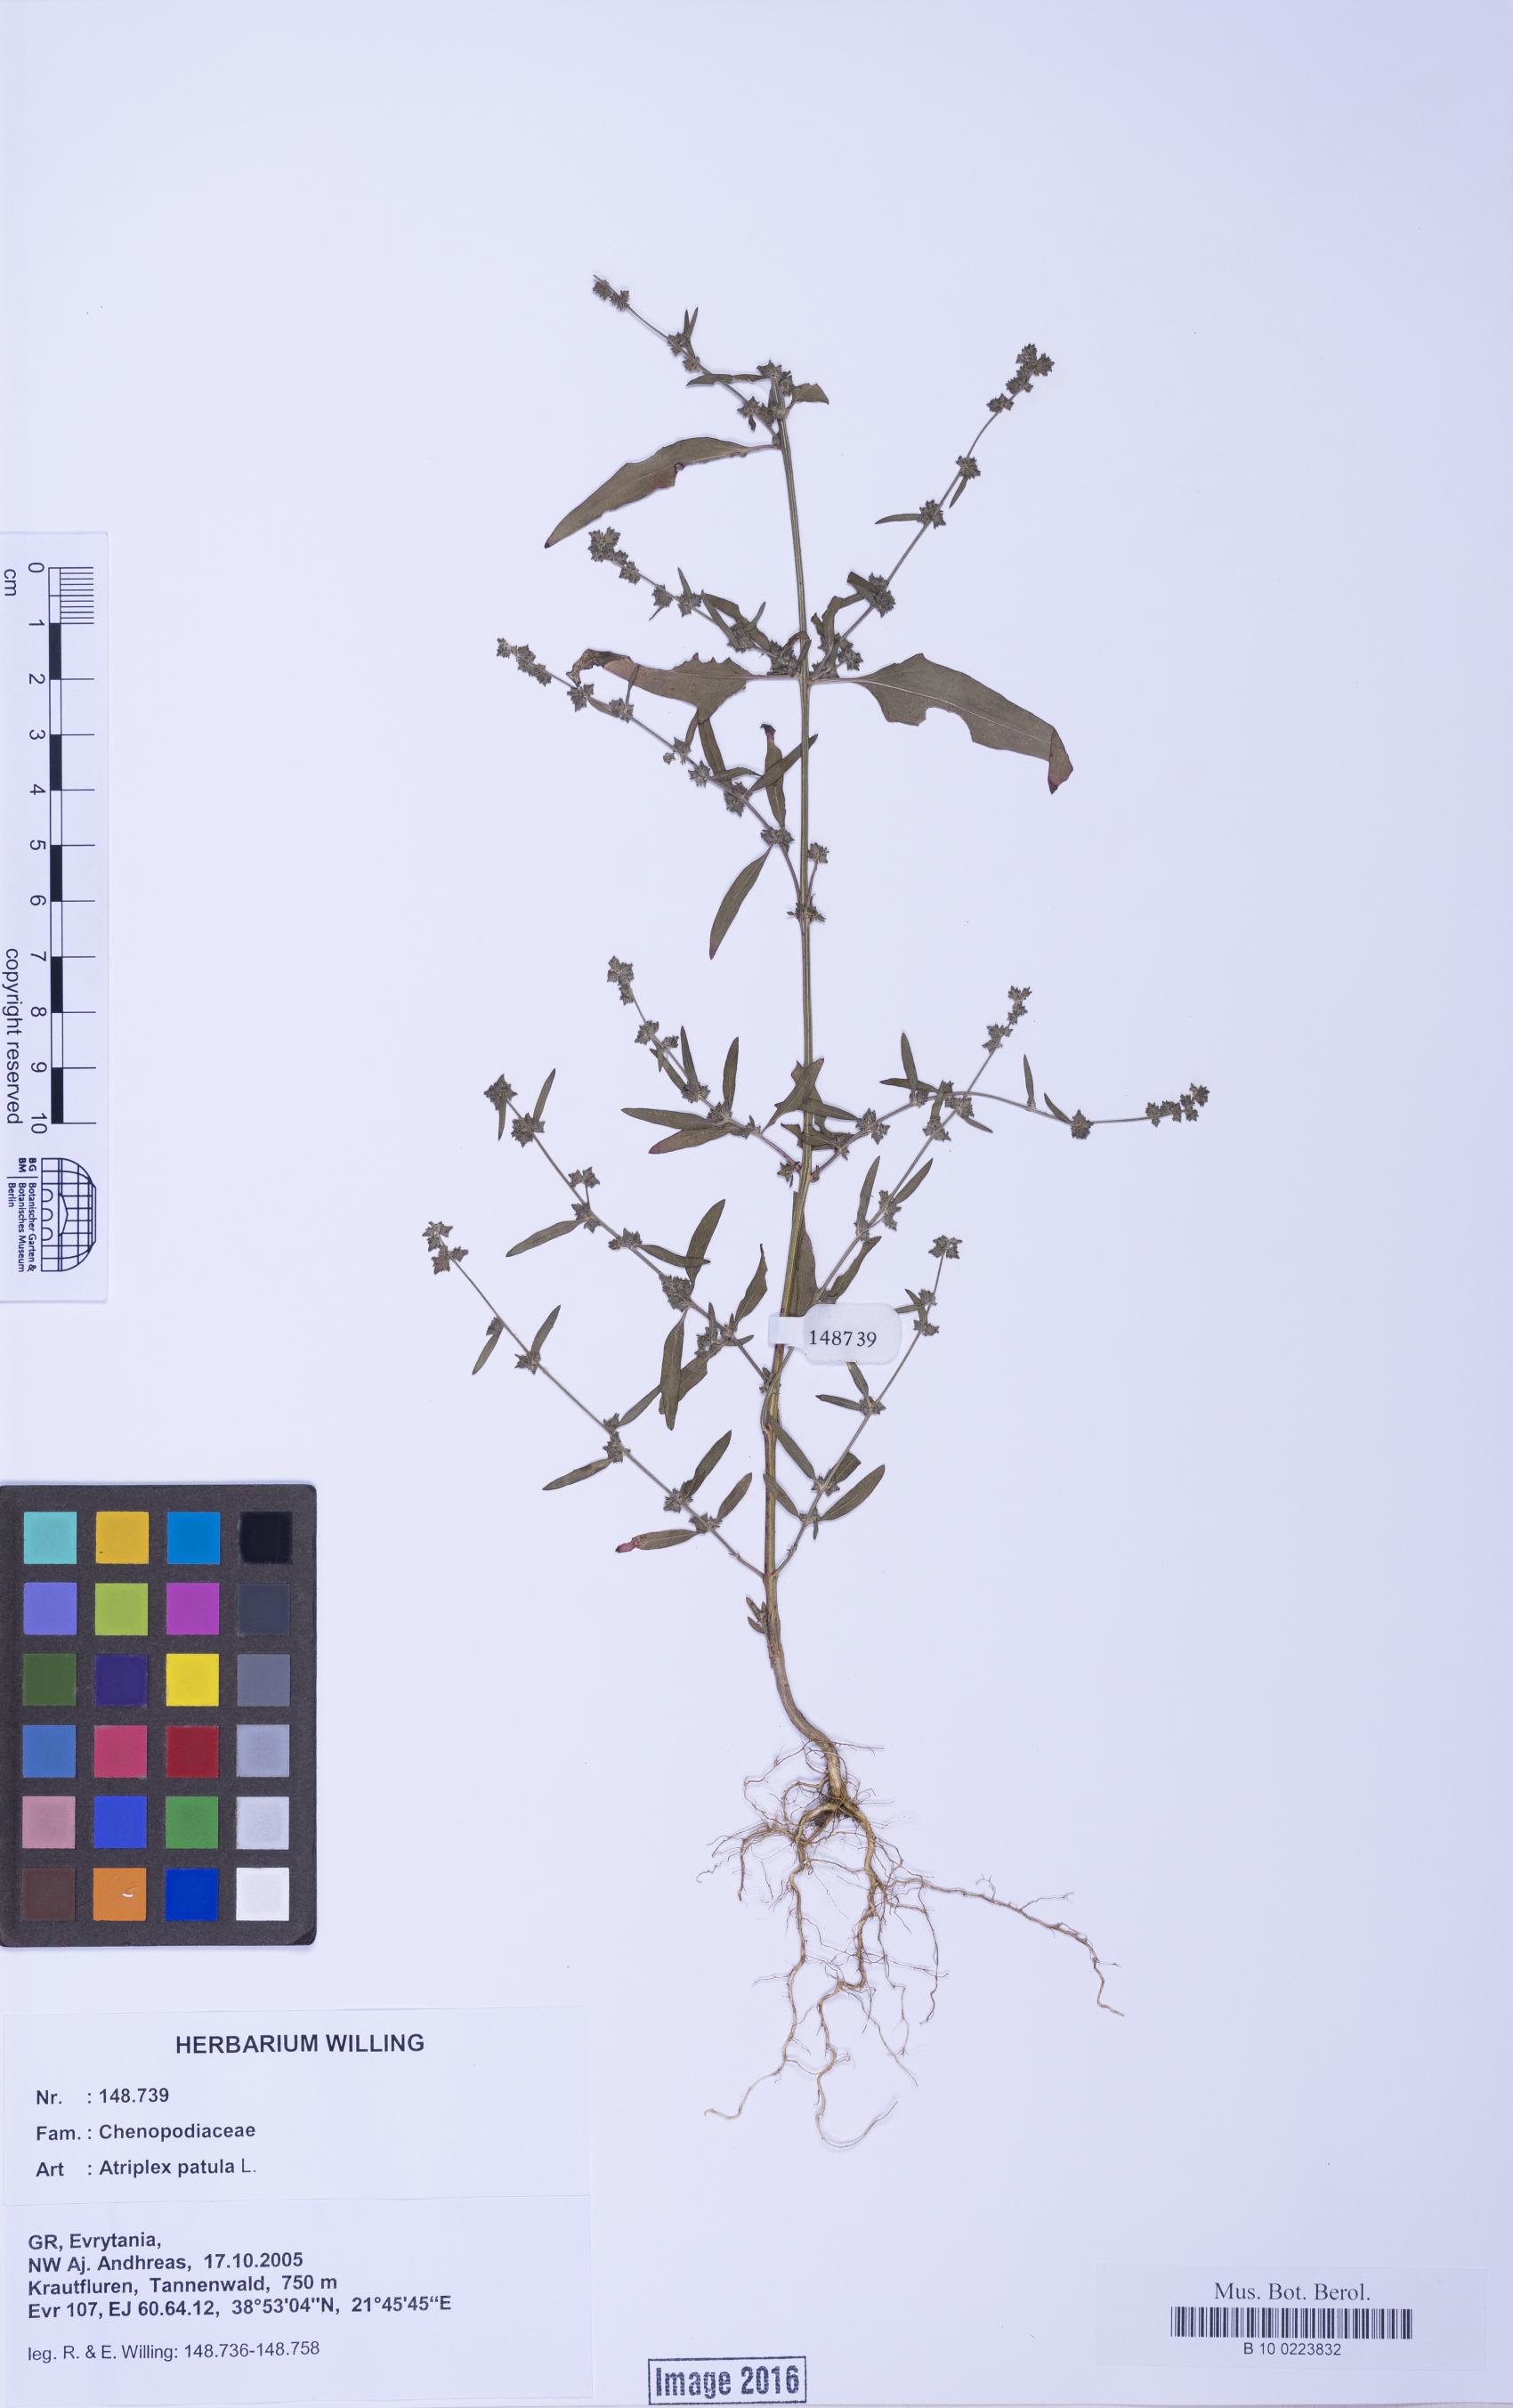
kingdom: Plantae
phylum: Tracheophyta
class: Magnoliopsida
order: Caryophyllales
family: Amaranthaceae
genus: Atriplex
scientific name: Atriplex patula
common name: Common orache
